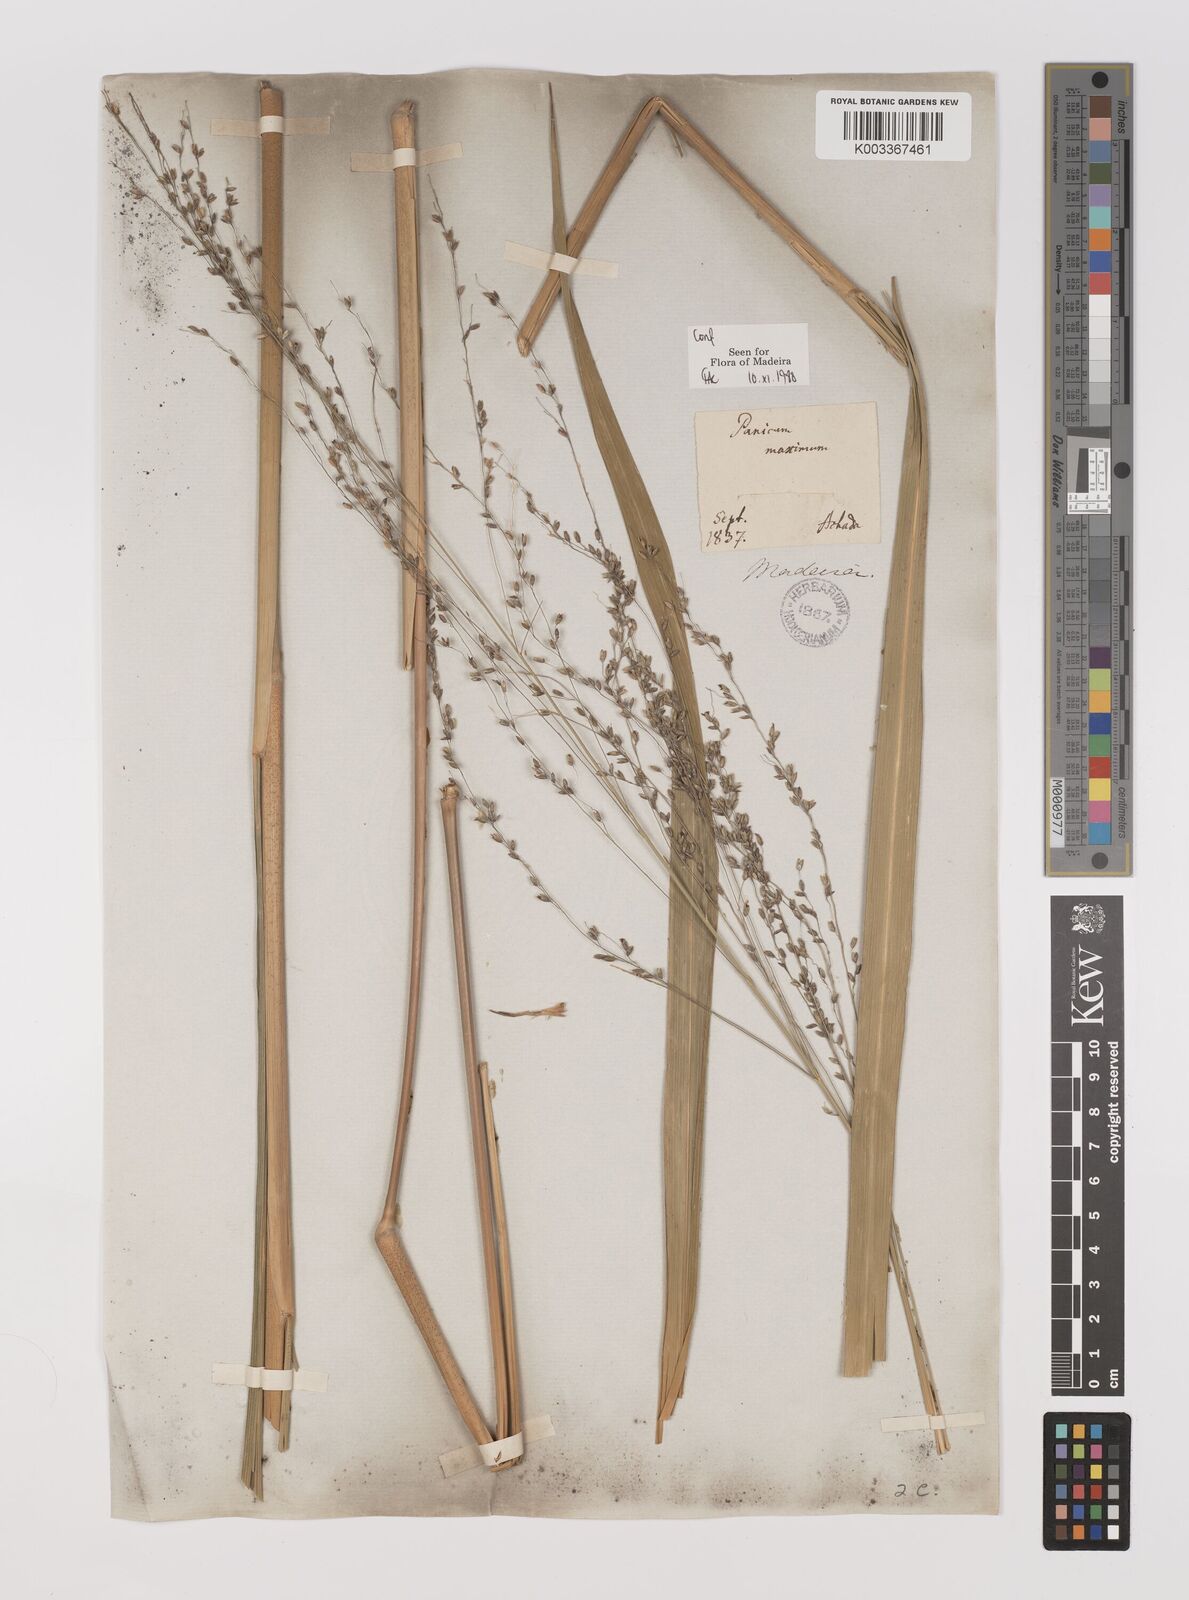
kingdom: Plantae
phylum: Tracheophyta
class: Liliopsida
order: Poales
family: Poaceae
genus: Megathyrsus
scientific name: Megathyrsus maximus
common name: Guineagrass
